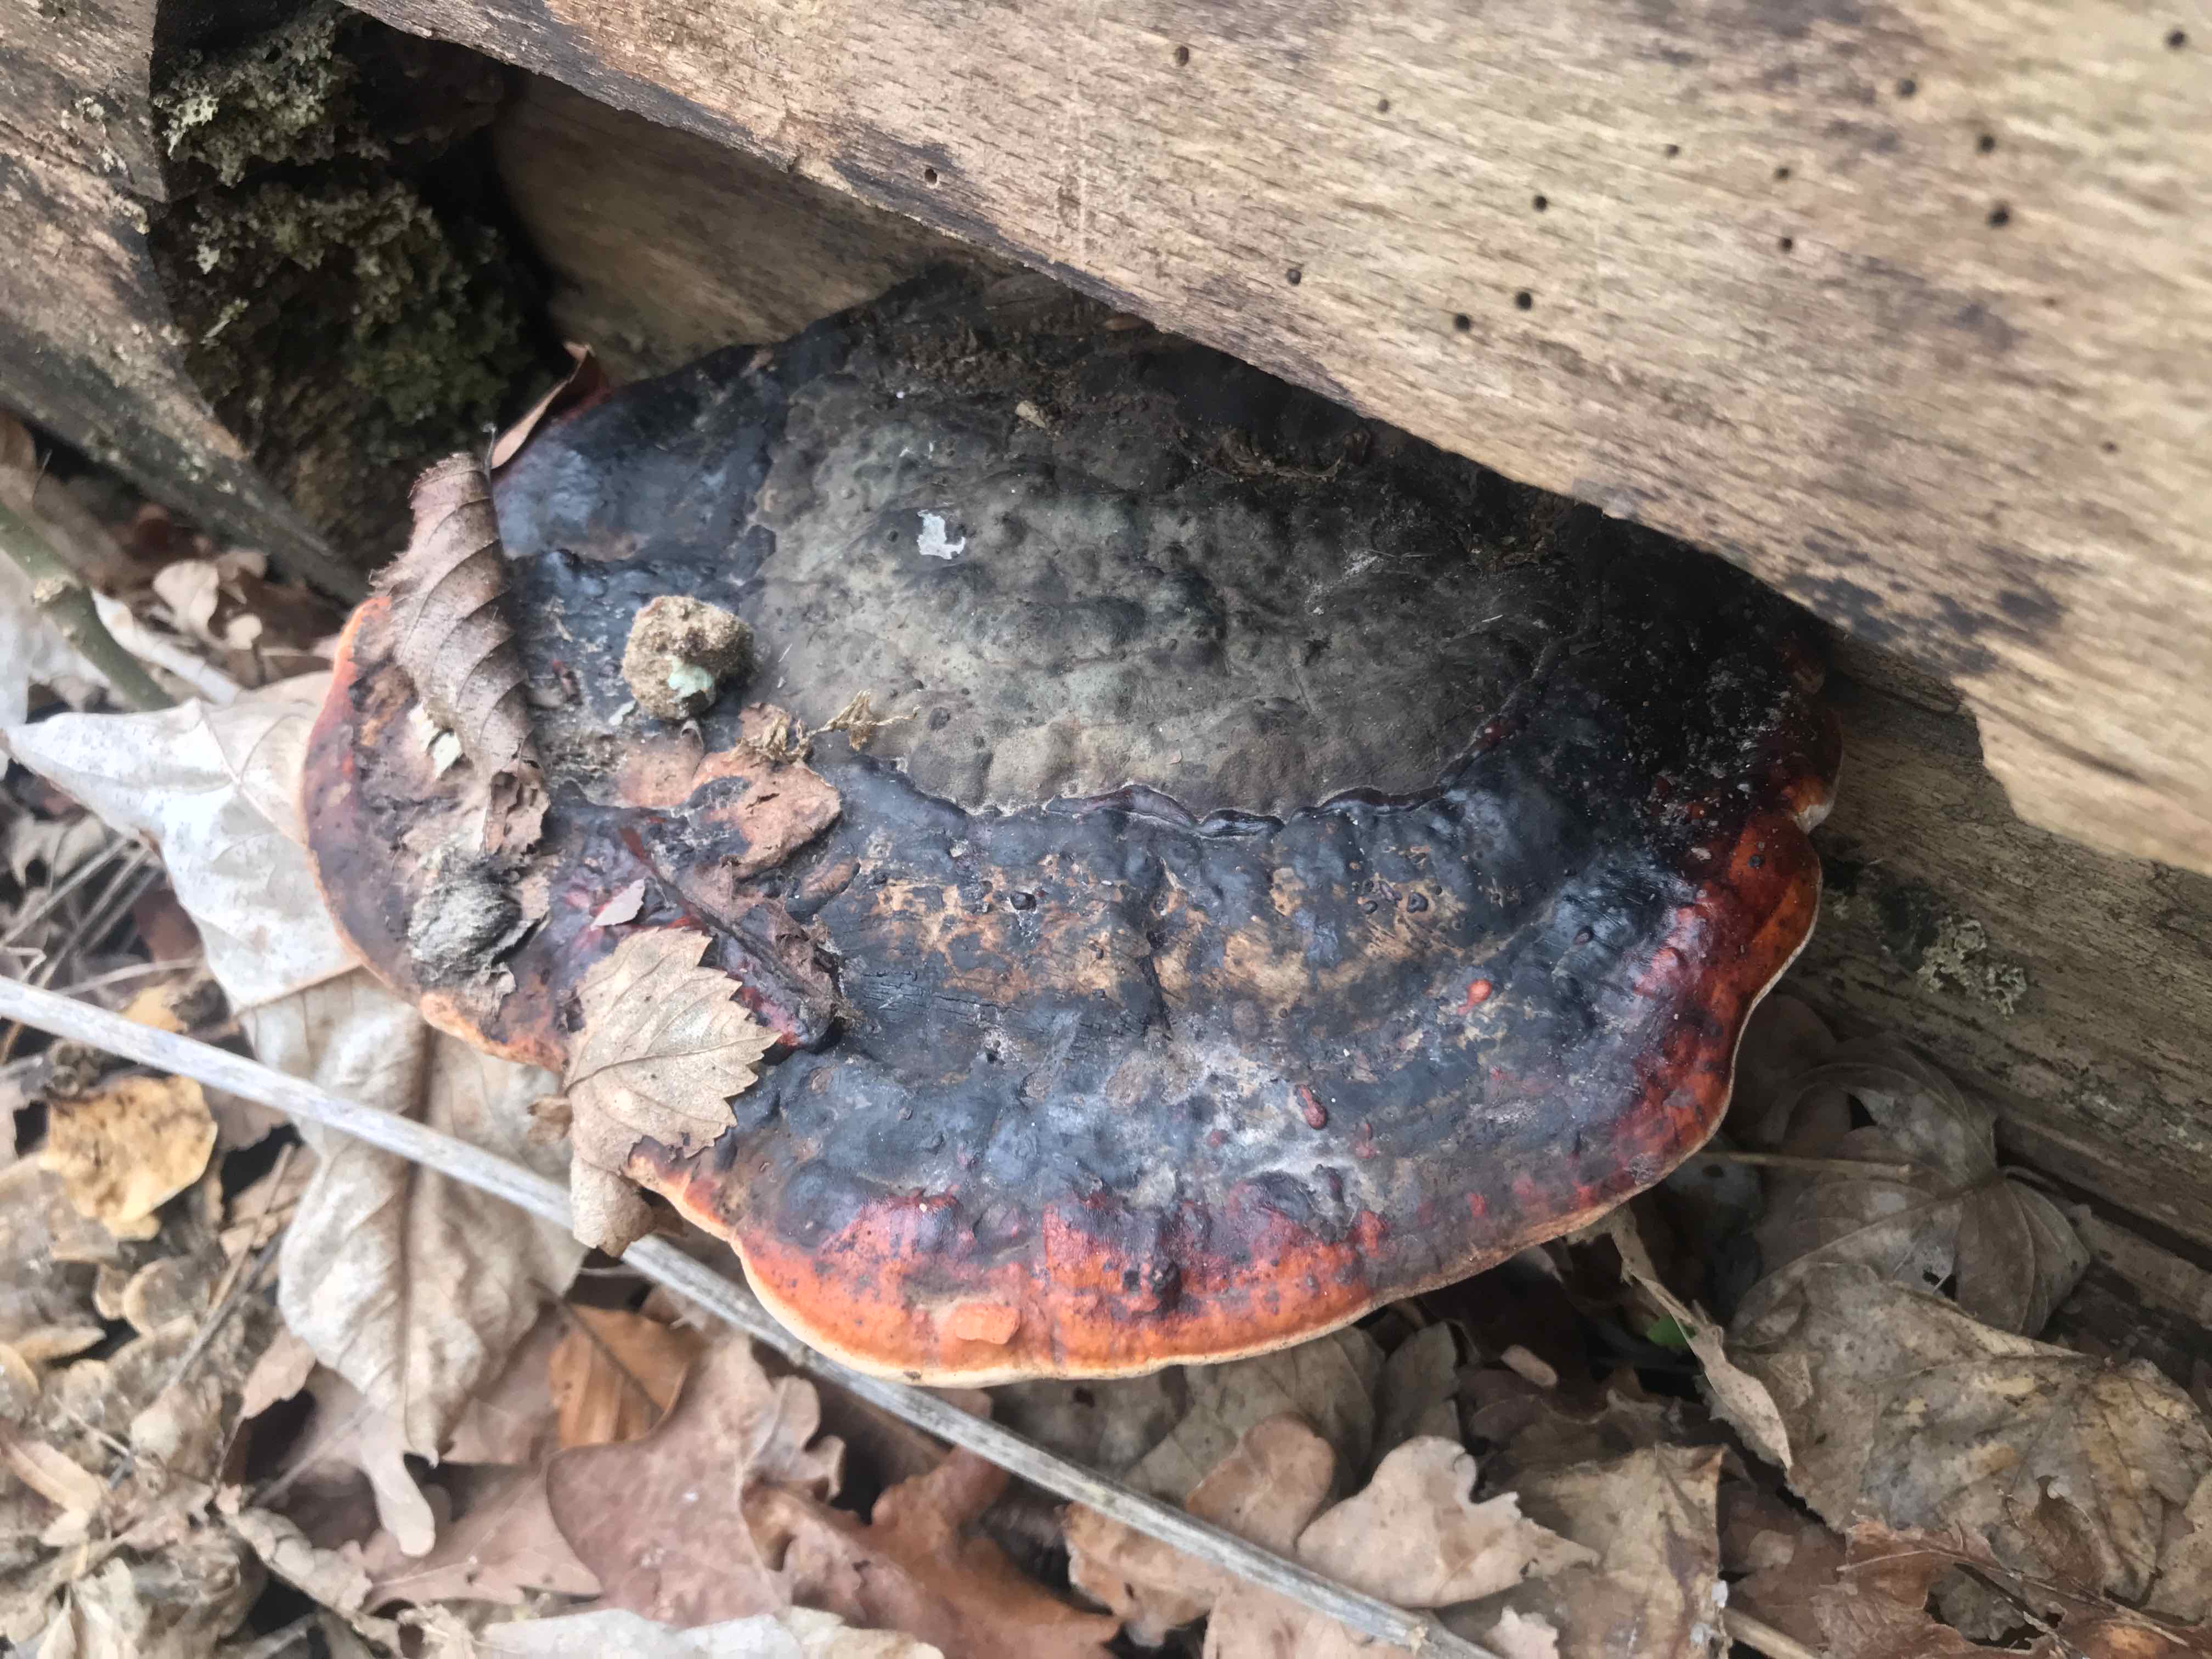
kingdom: Fungi
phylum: Basidiomycota
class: Agaricomycetes
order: Polyporales
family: Fomitopsidaceae
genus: Fomitopsis
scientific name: Fomitopsis pinicola
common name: randbæltet hovporesvamp
